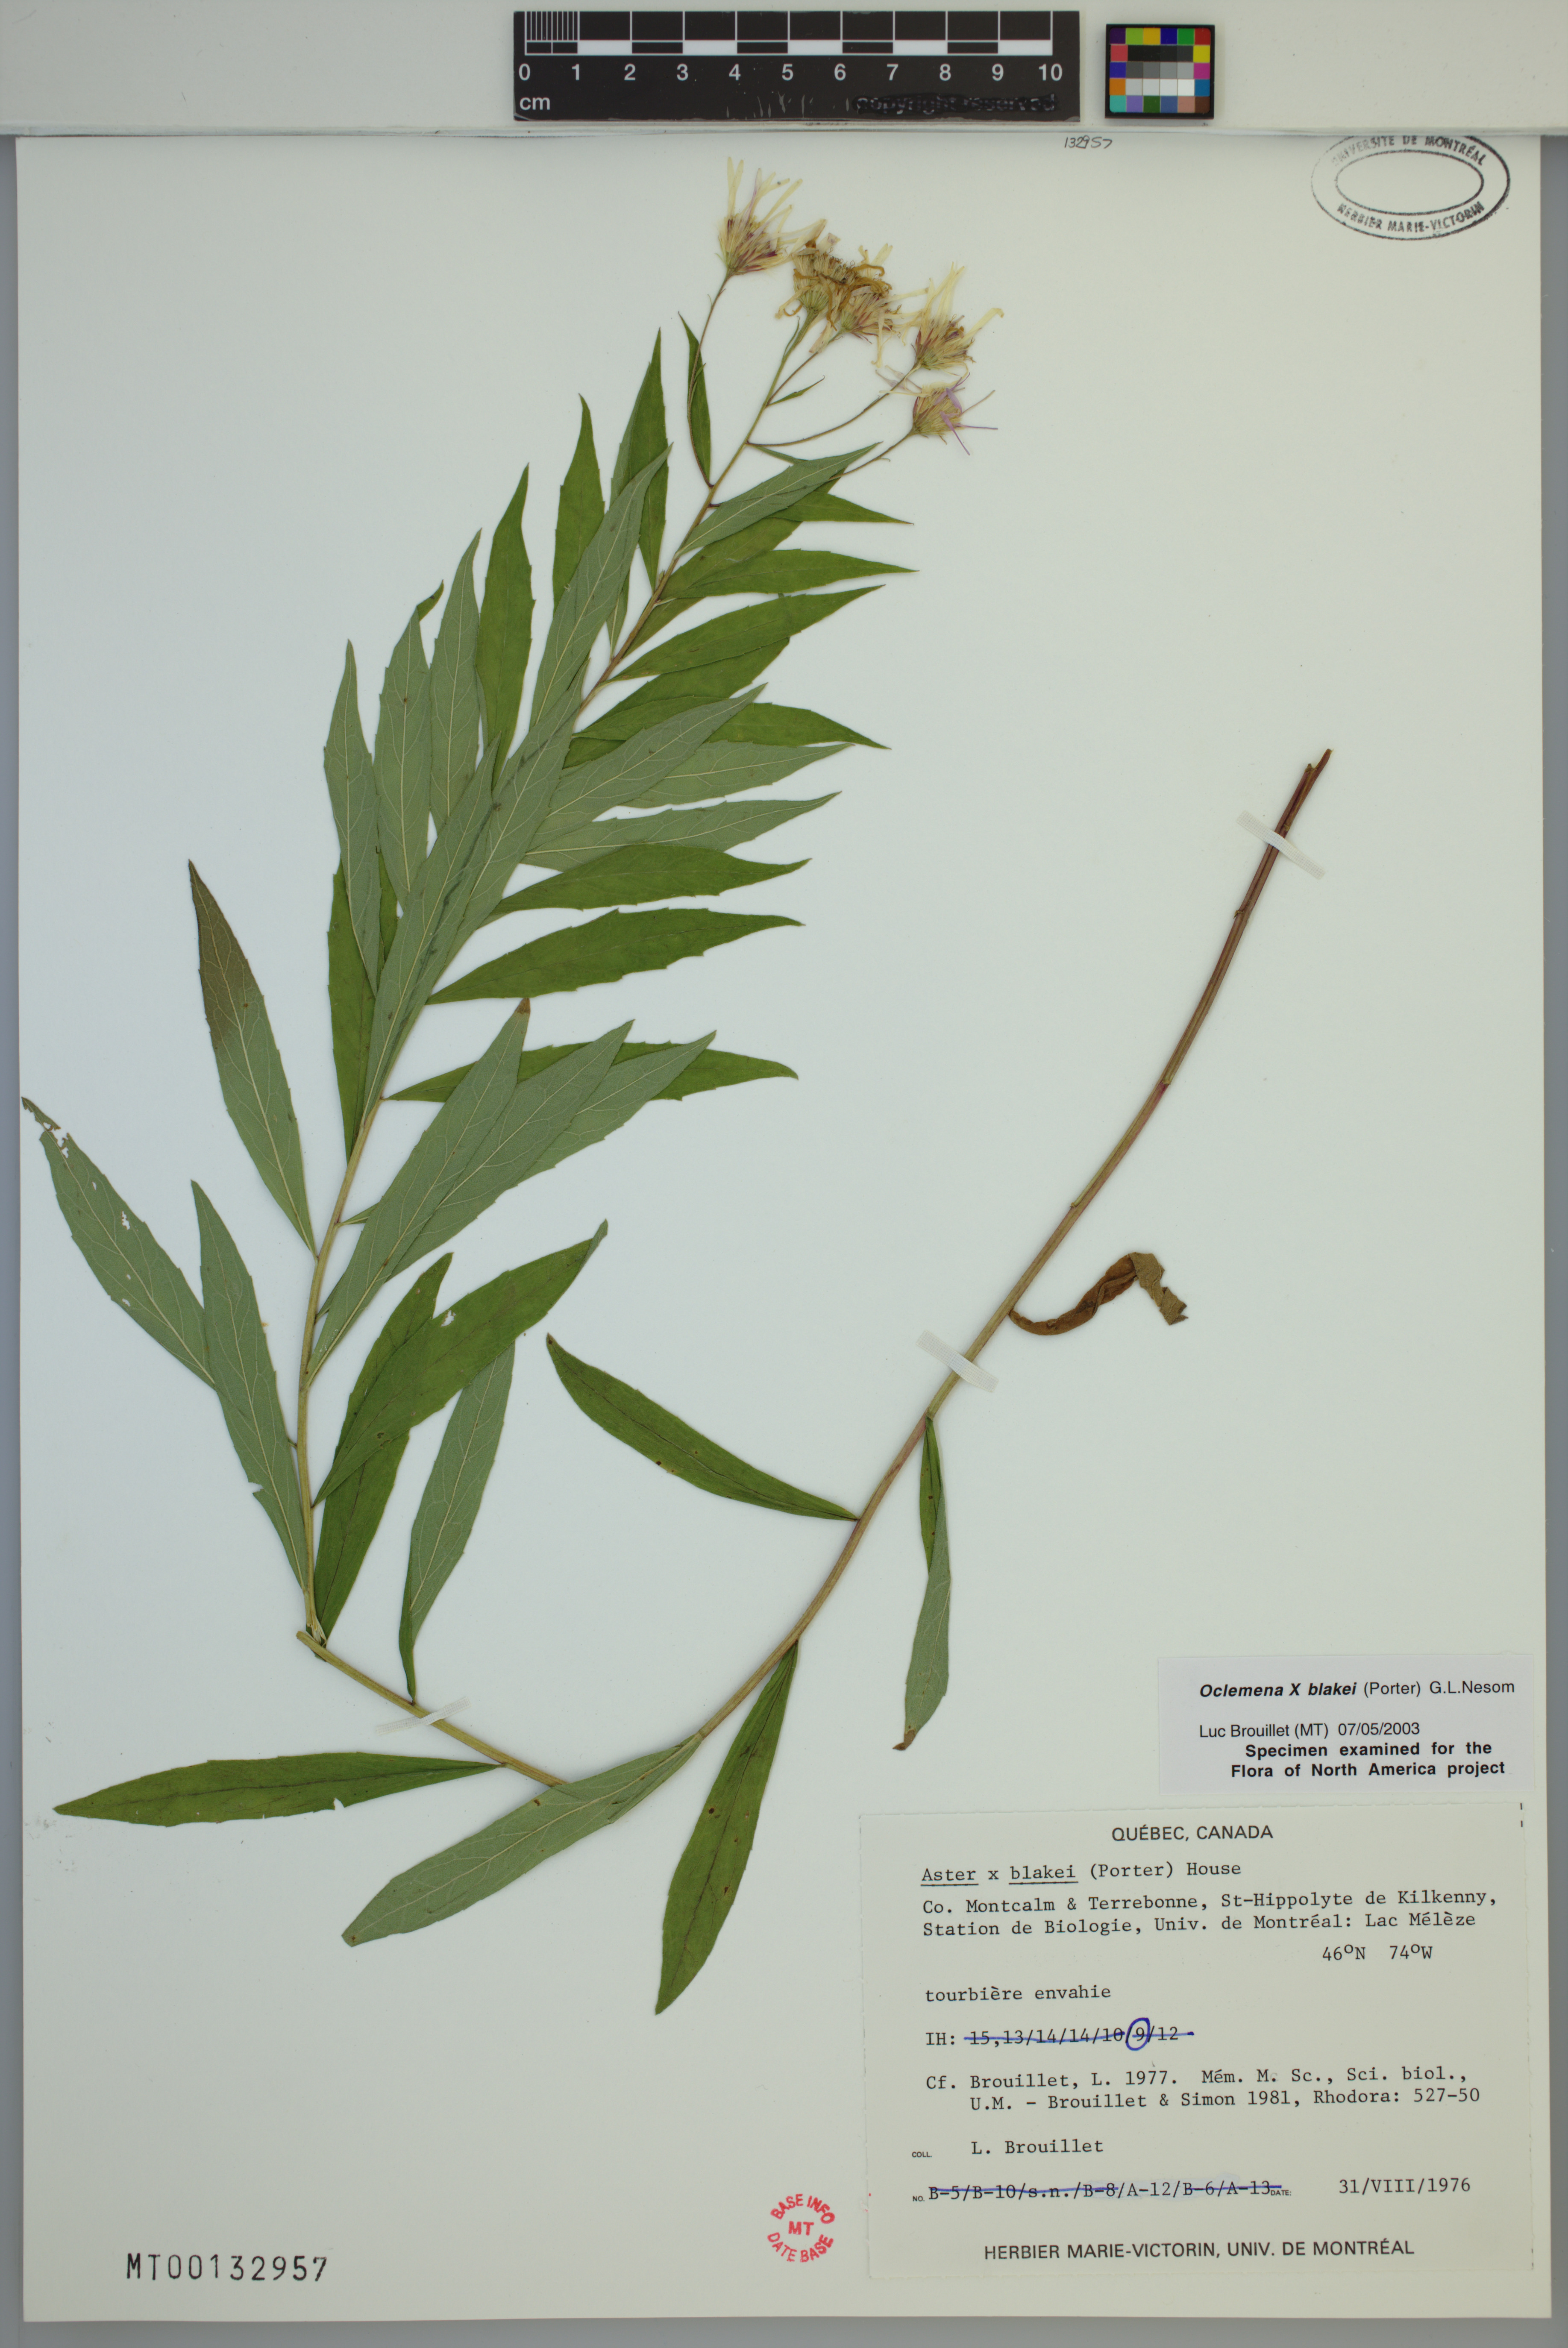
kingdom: Plantae
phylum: Tracheophyta
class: Magnoliopsida
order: Asterales
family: Asteraceae
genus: Oclemena
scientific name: Oclemena blakei
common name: Blake's aster
